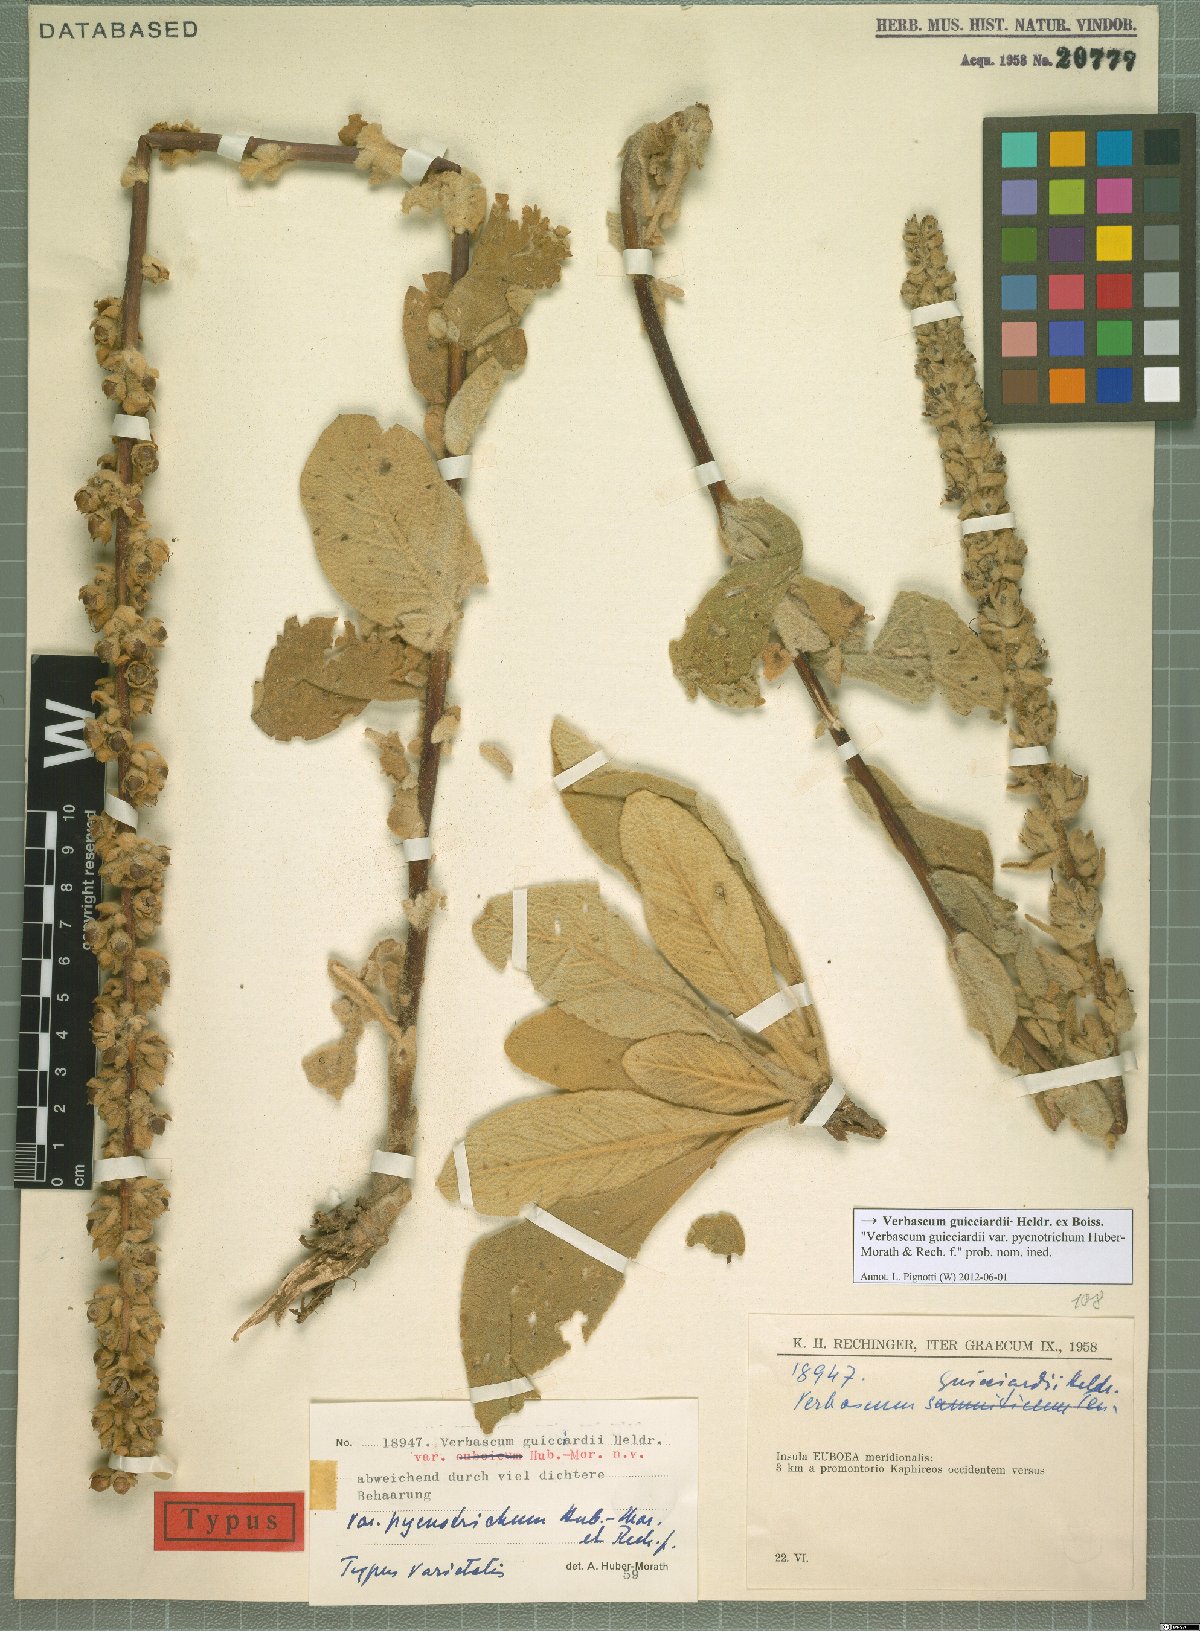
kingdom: Plantae
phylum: Tracheophyta
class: Magnoliopsida
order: Lamiales
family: Scrophulariaceae
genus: Verbascum
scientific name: Verbascum guicciardii
